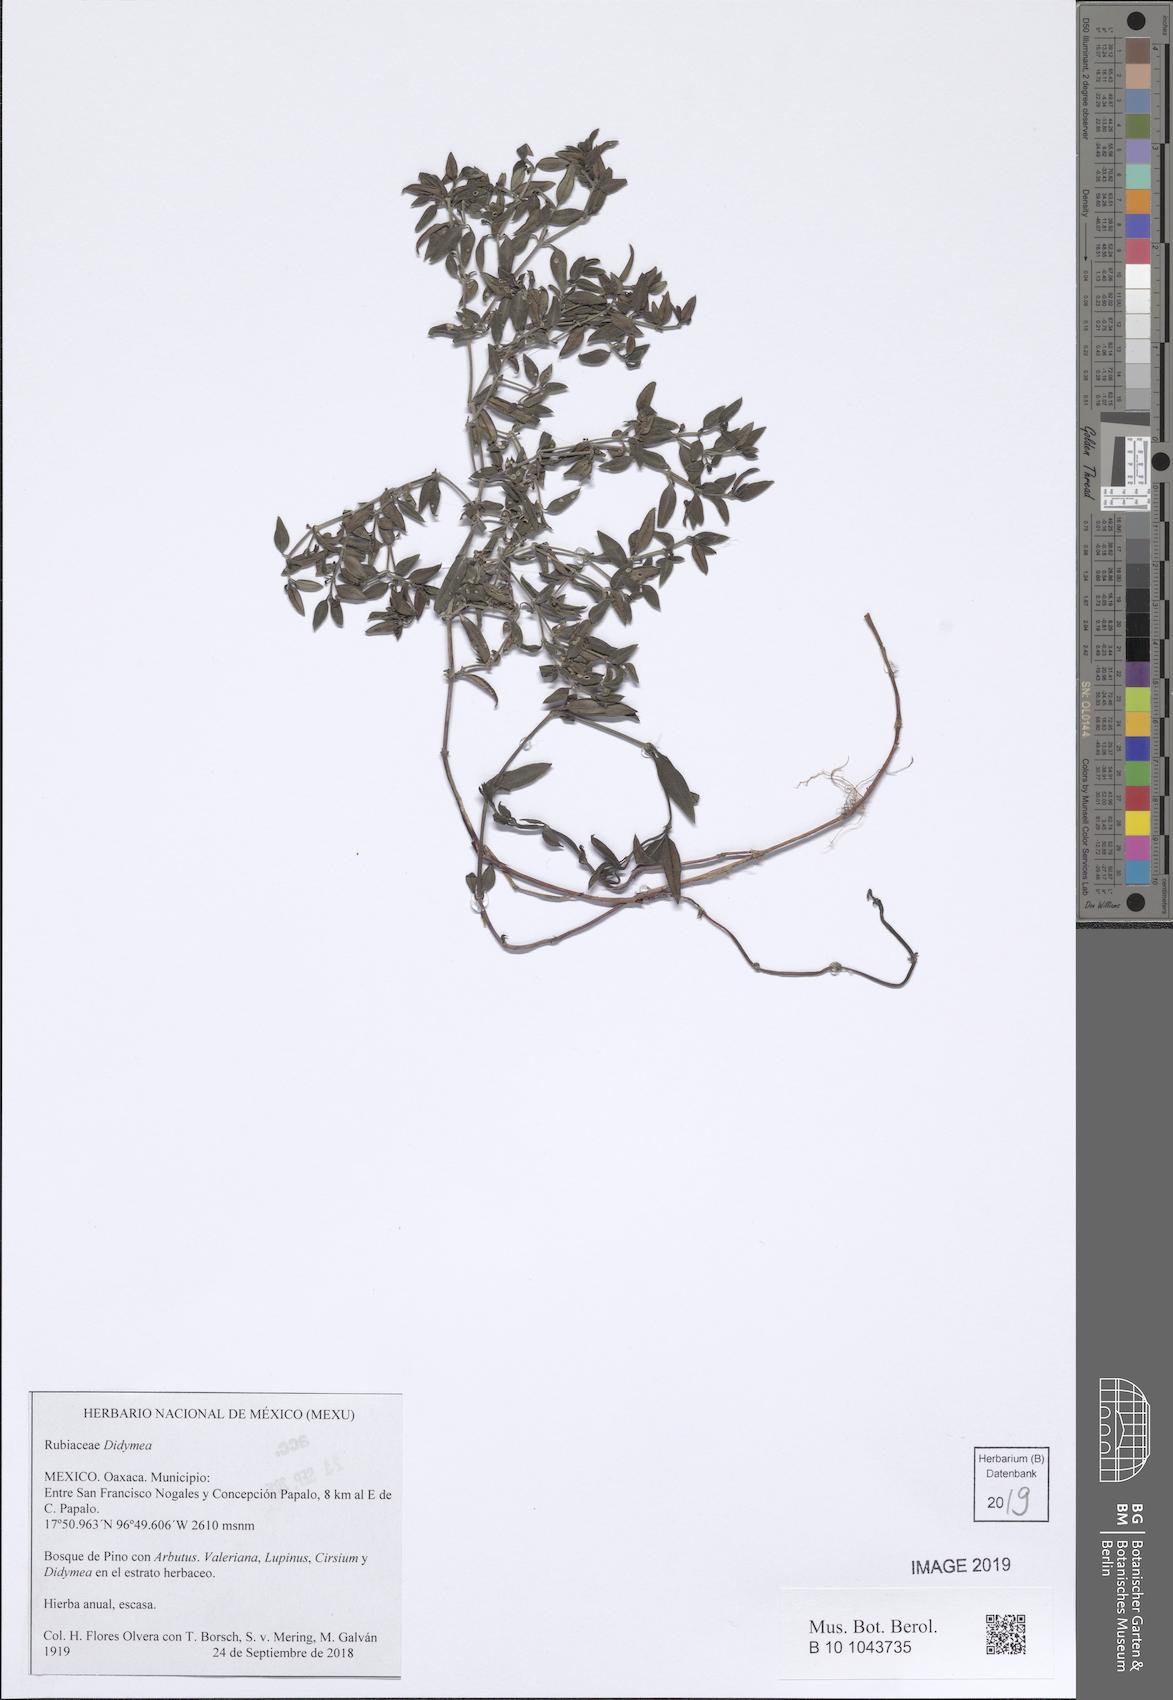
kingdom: Plantae
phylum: Tracheophyta
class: Magnoliopsida
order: Gentianales
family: Rubiaceae
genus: Didymaea
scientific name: Didymaea
